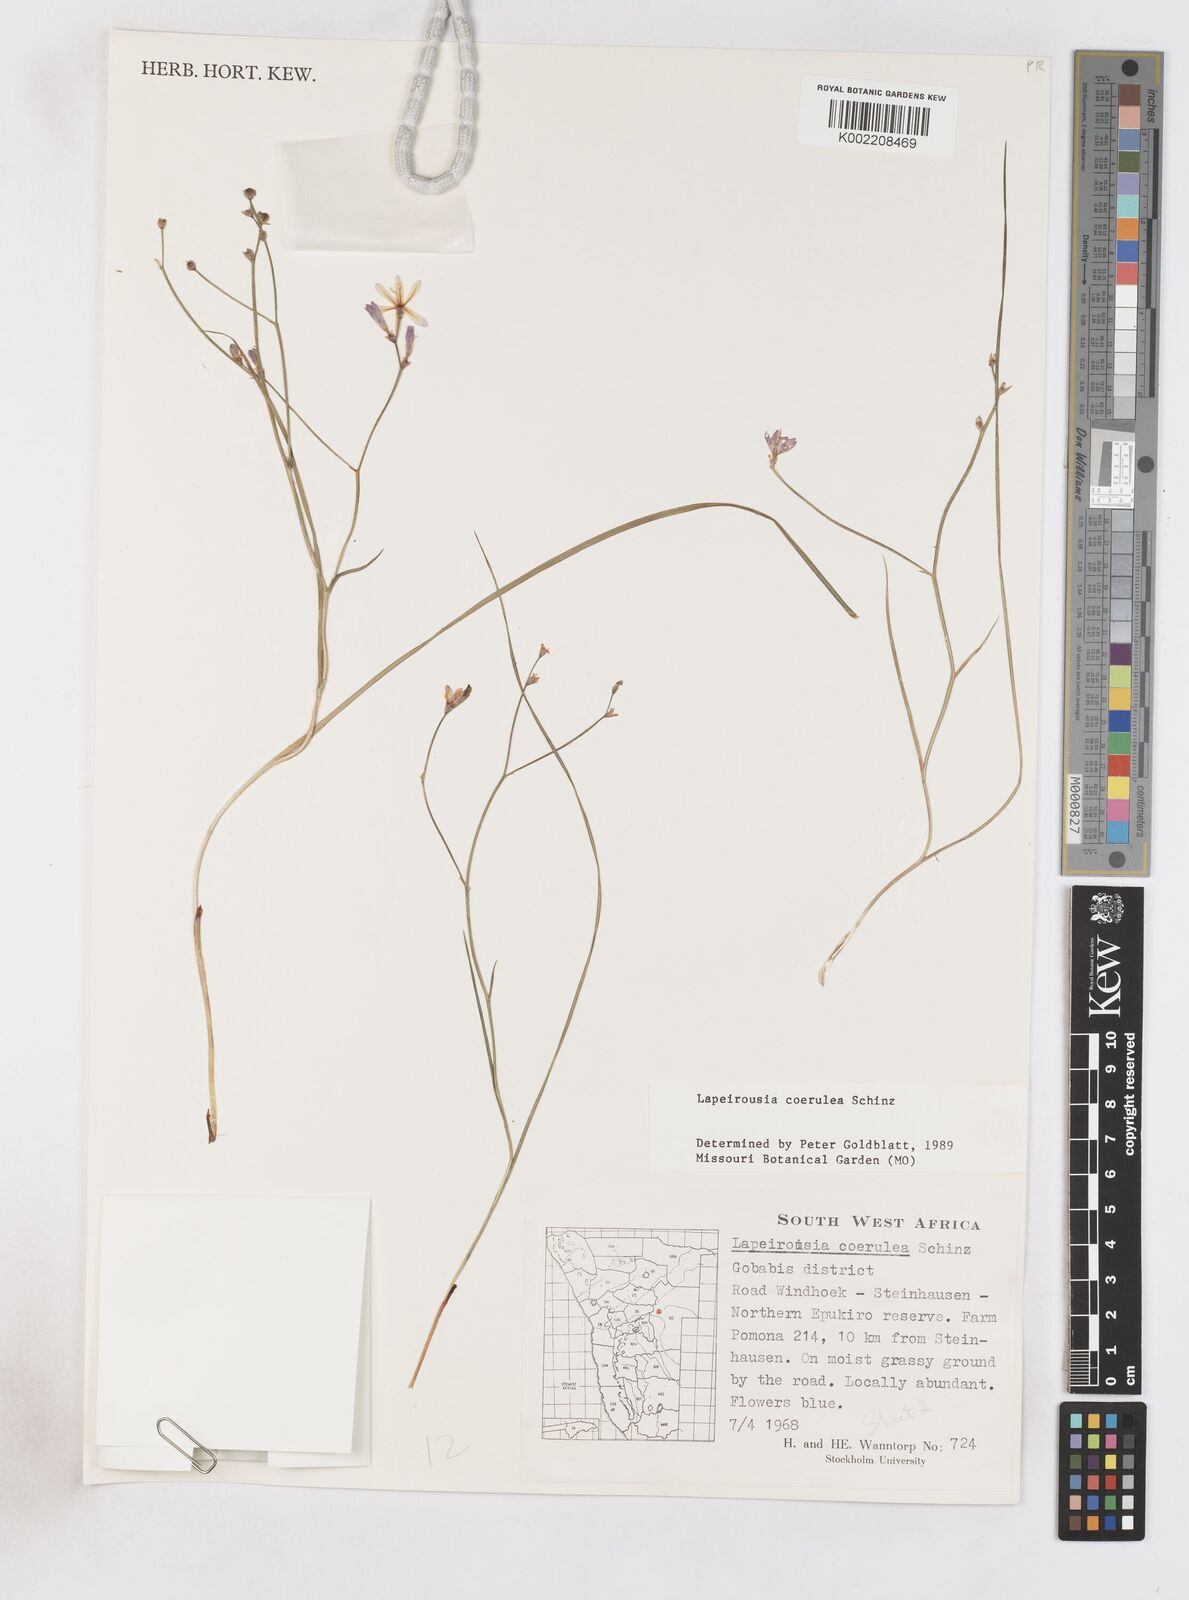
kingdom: Plantae
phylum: Tracheophyta
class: Liliopsida
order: Asparagales
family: Iridaceae
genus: Afrosolen
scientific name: Afrosolen coeruleus
